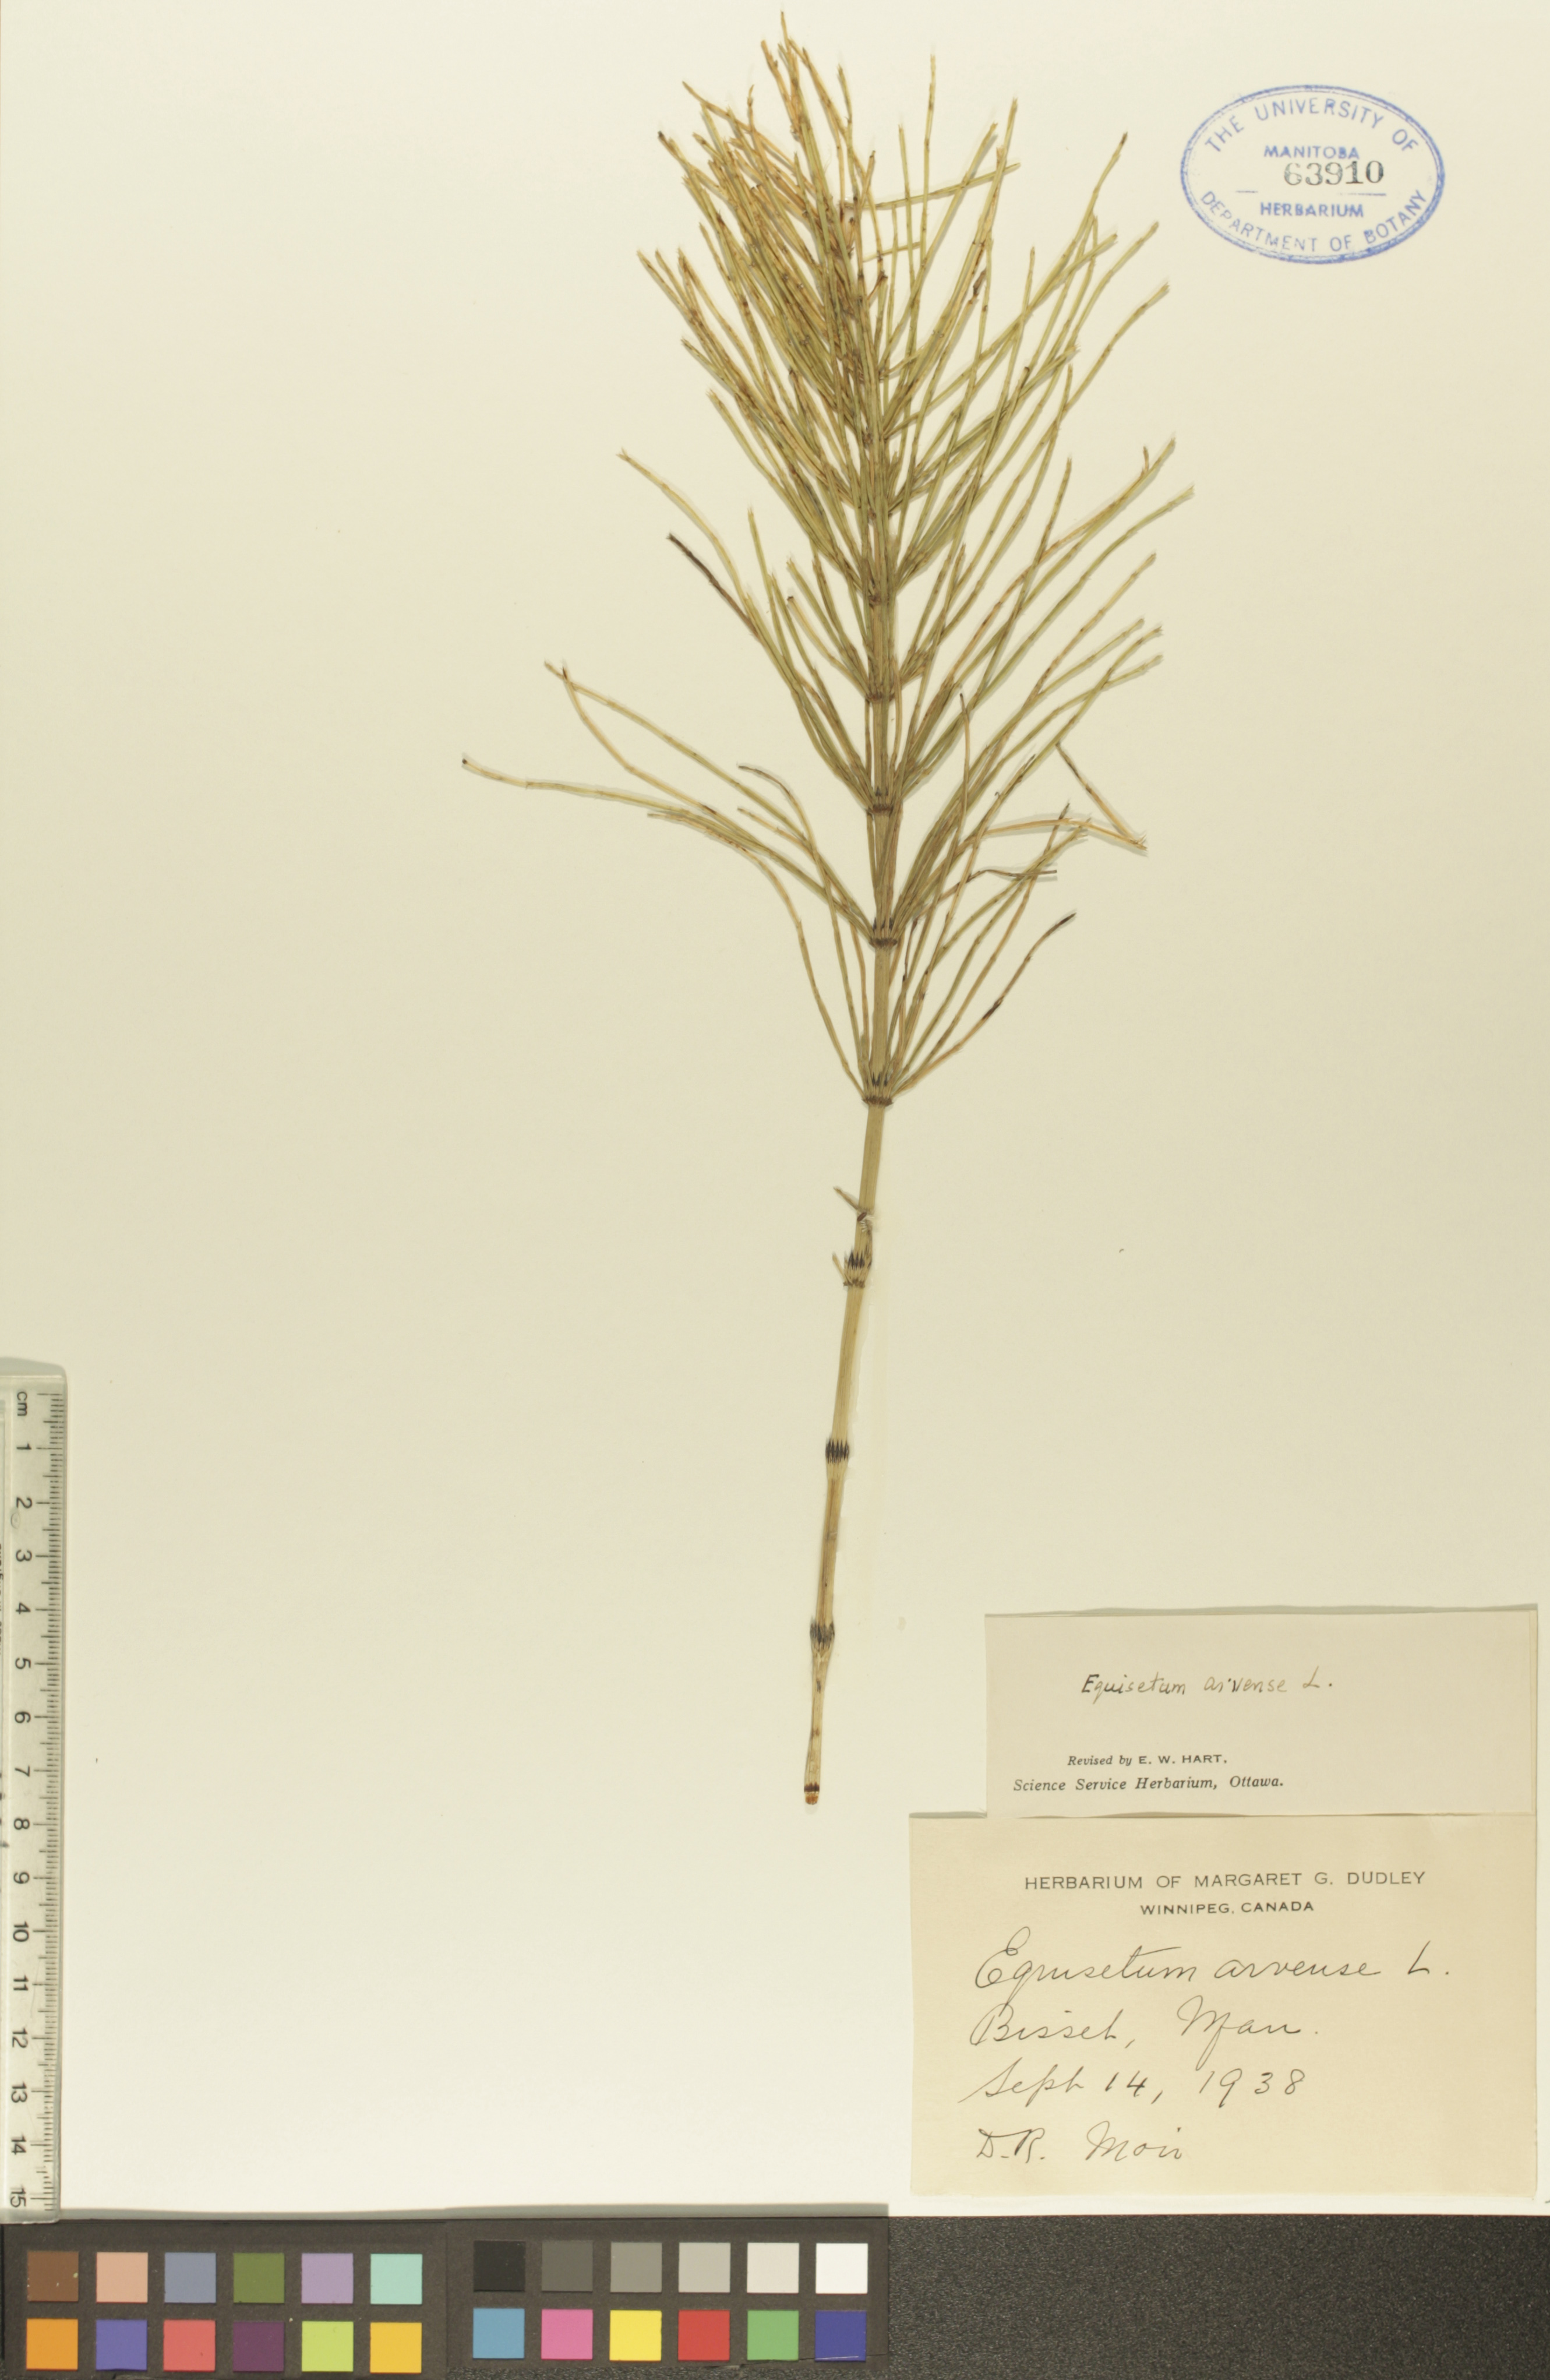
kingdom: Plantae
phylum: Tracheophyta
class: Polypodiopsida
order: Equisetales
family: Equisetaceae
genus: Equisetum
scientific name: Equisetum arvense
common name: Field horsetail
